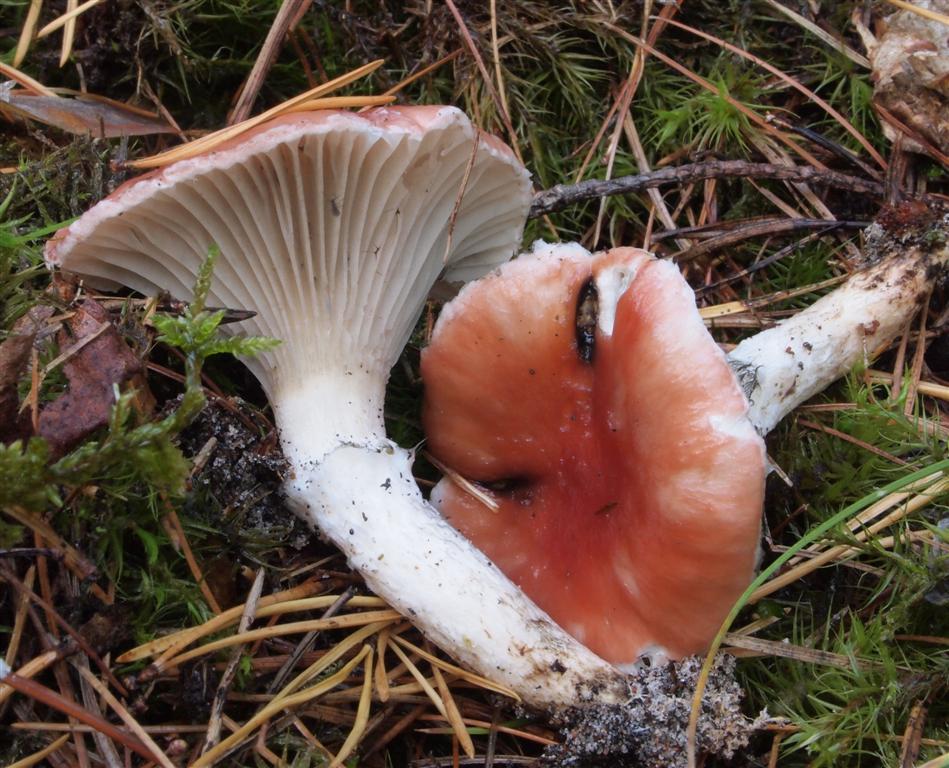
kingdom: Fungi
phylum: Basidiomycota
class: Agaricomycetes
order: Boletales
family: Gomphidiaceae
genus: Gomphidius
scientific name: Gomphidius roseus
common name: rosenrød slimslør
